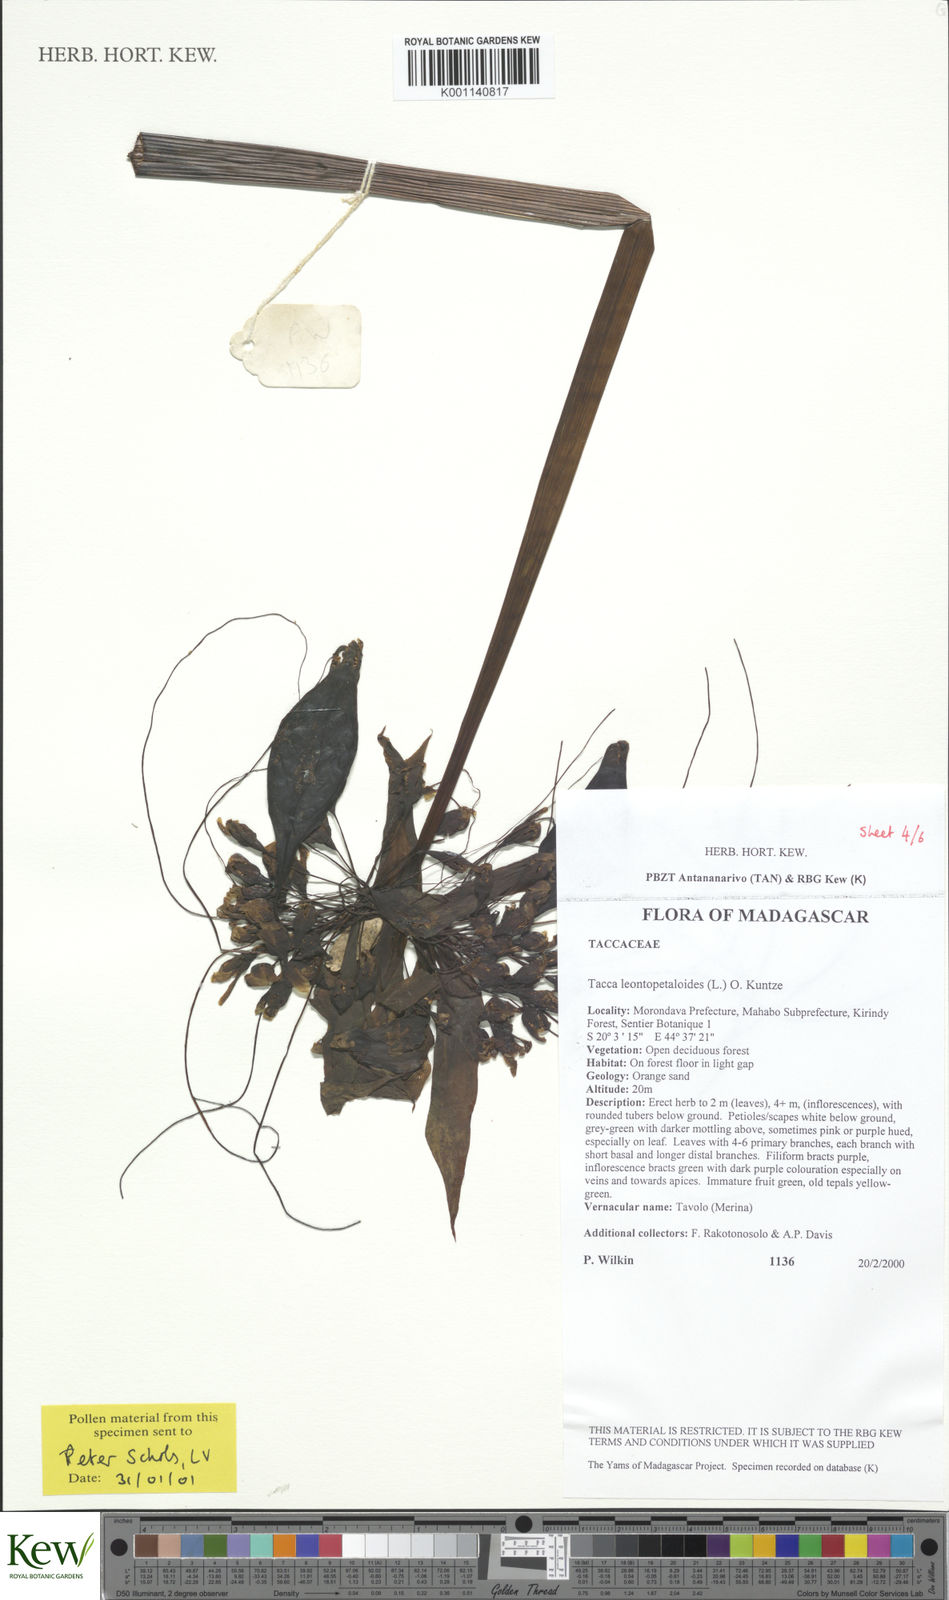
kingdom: Plantae
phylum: Tracheophyta
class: Liliopsida
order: Dioscoreales
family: Dioscoreaceae
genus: Tacca
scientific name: Tacca leontopetaloides
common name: Arrowroot
